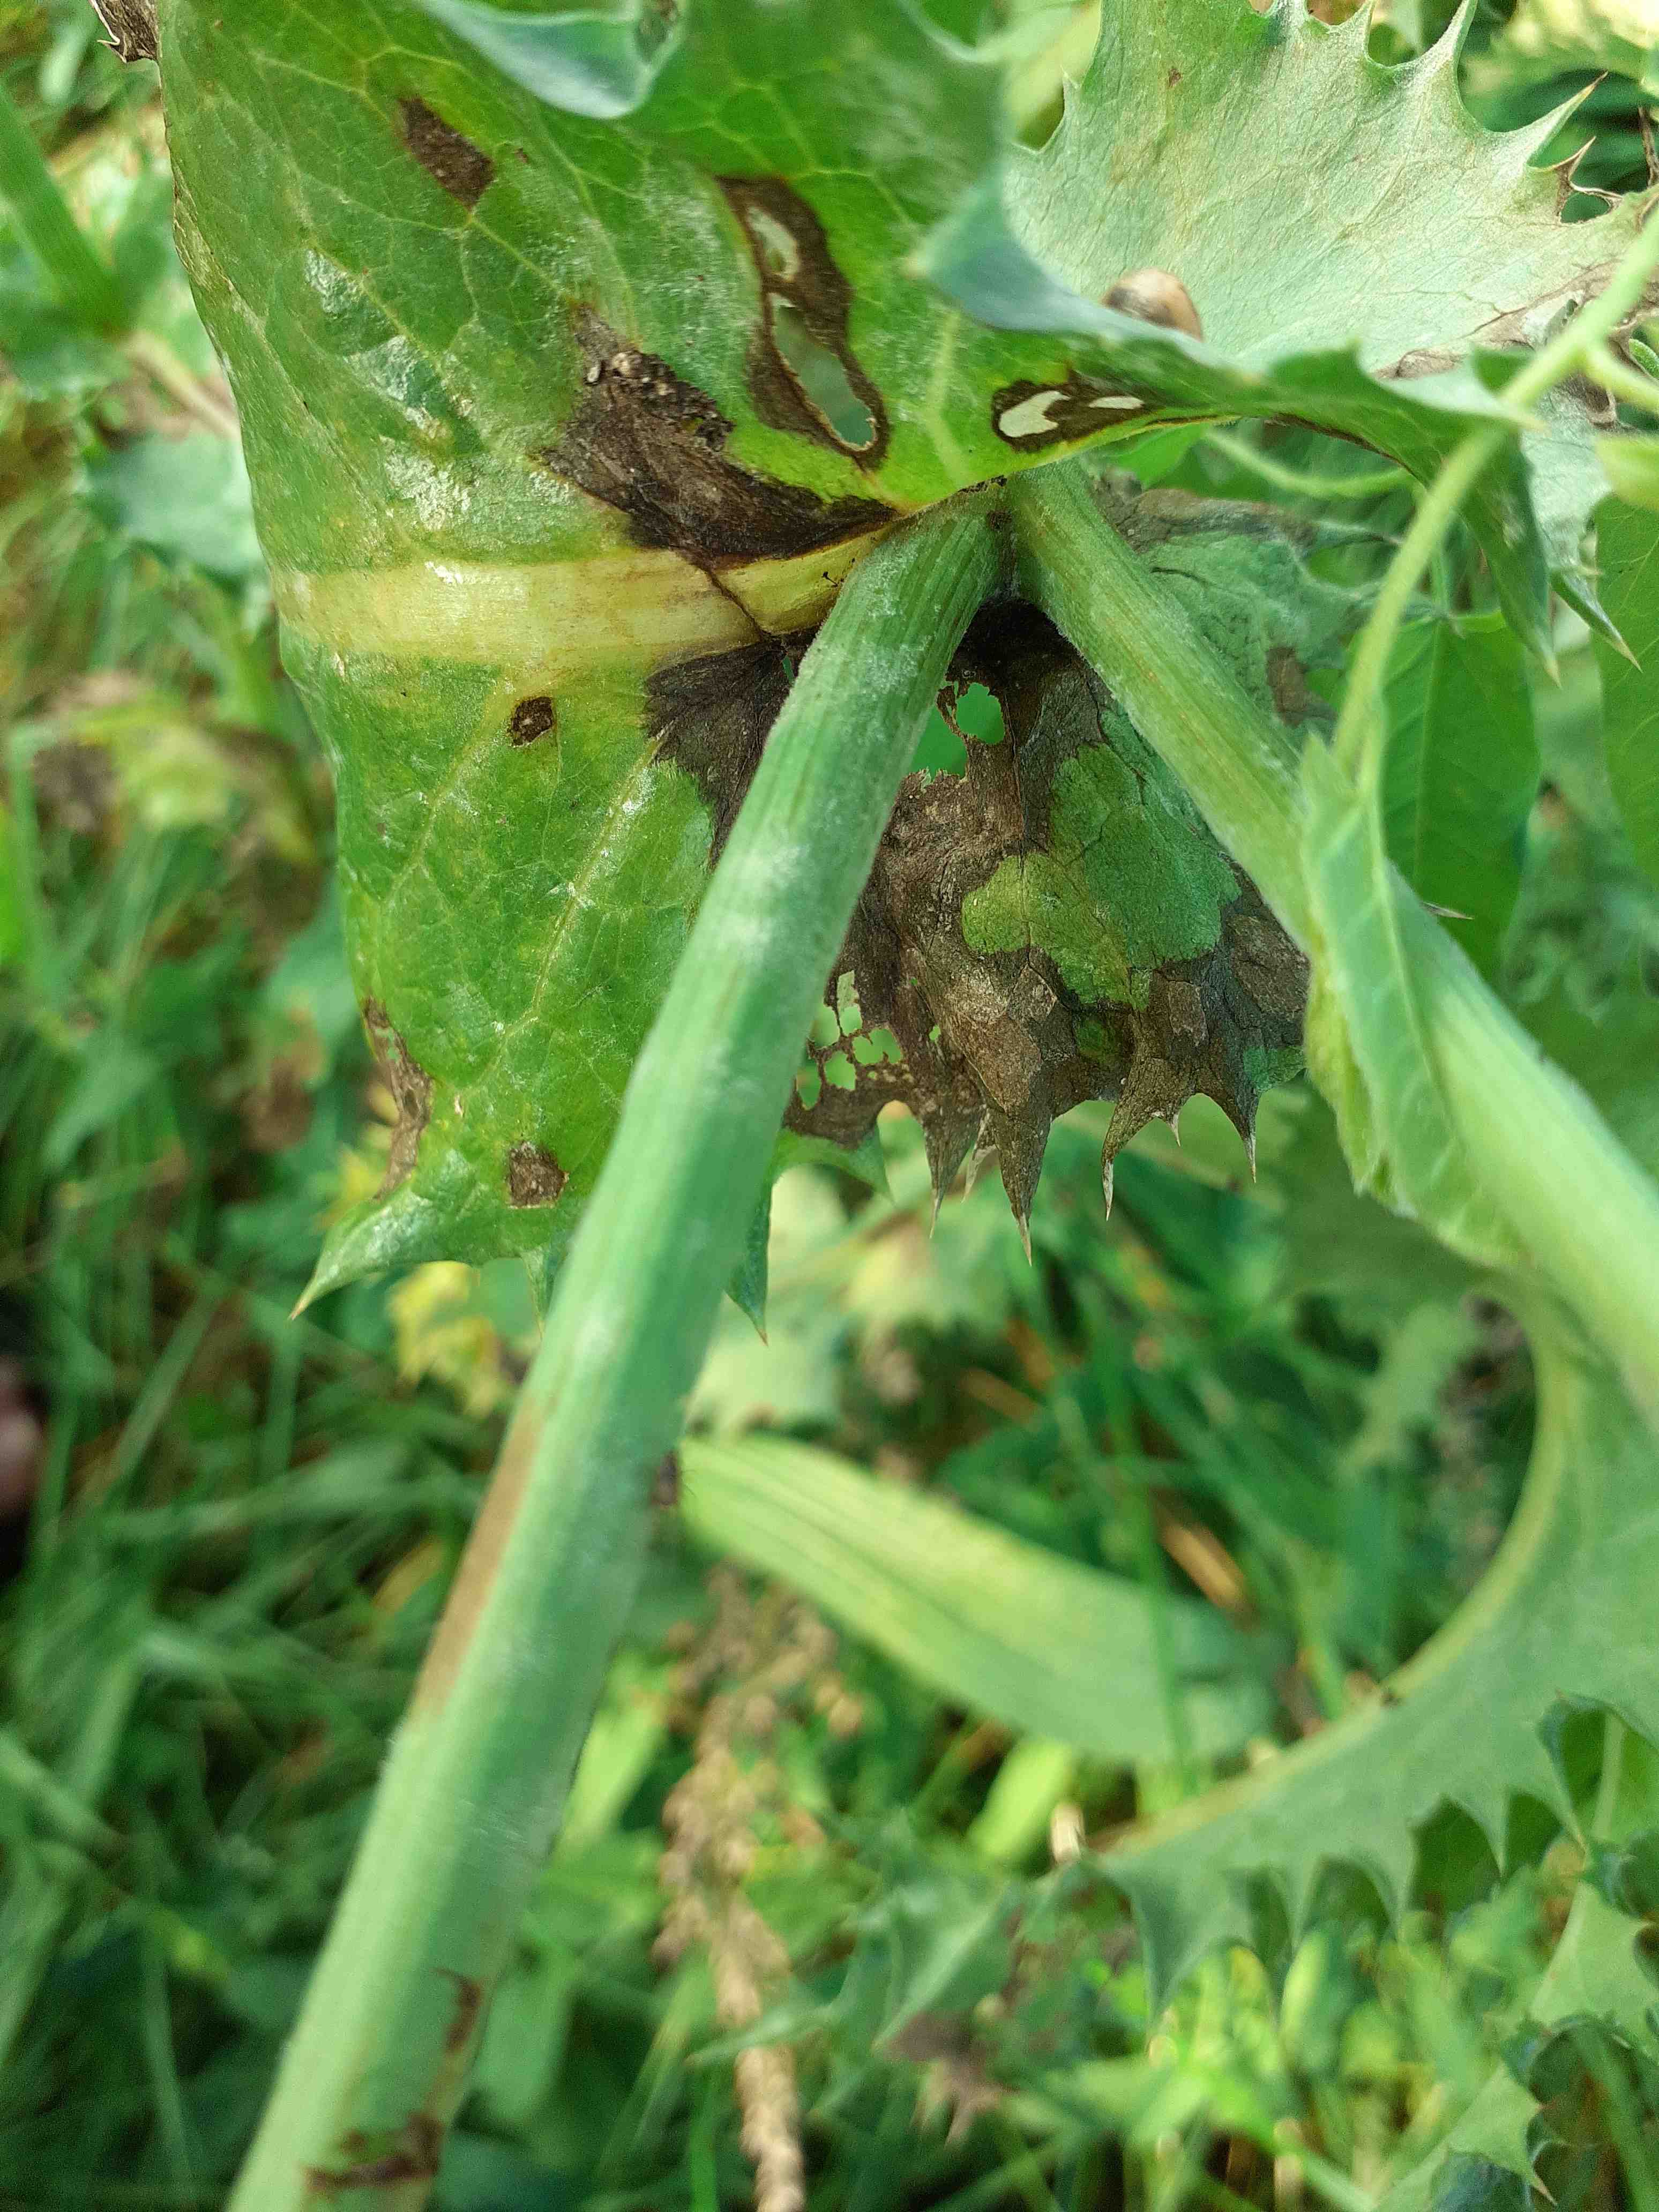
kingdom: Fungi
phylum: Ascomycota
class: Leotiomycetes
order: Helotiales
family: Erysiphaceae
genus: Golovinomyces
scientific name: Golovinomyces sonchicola
